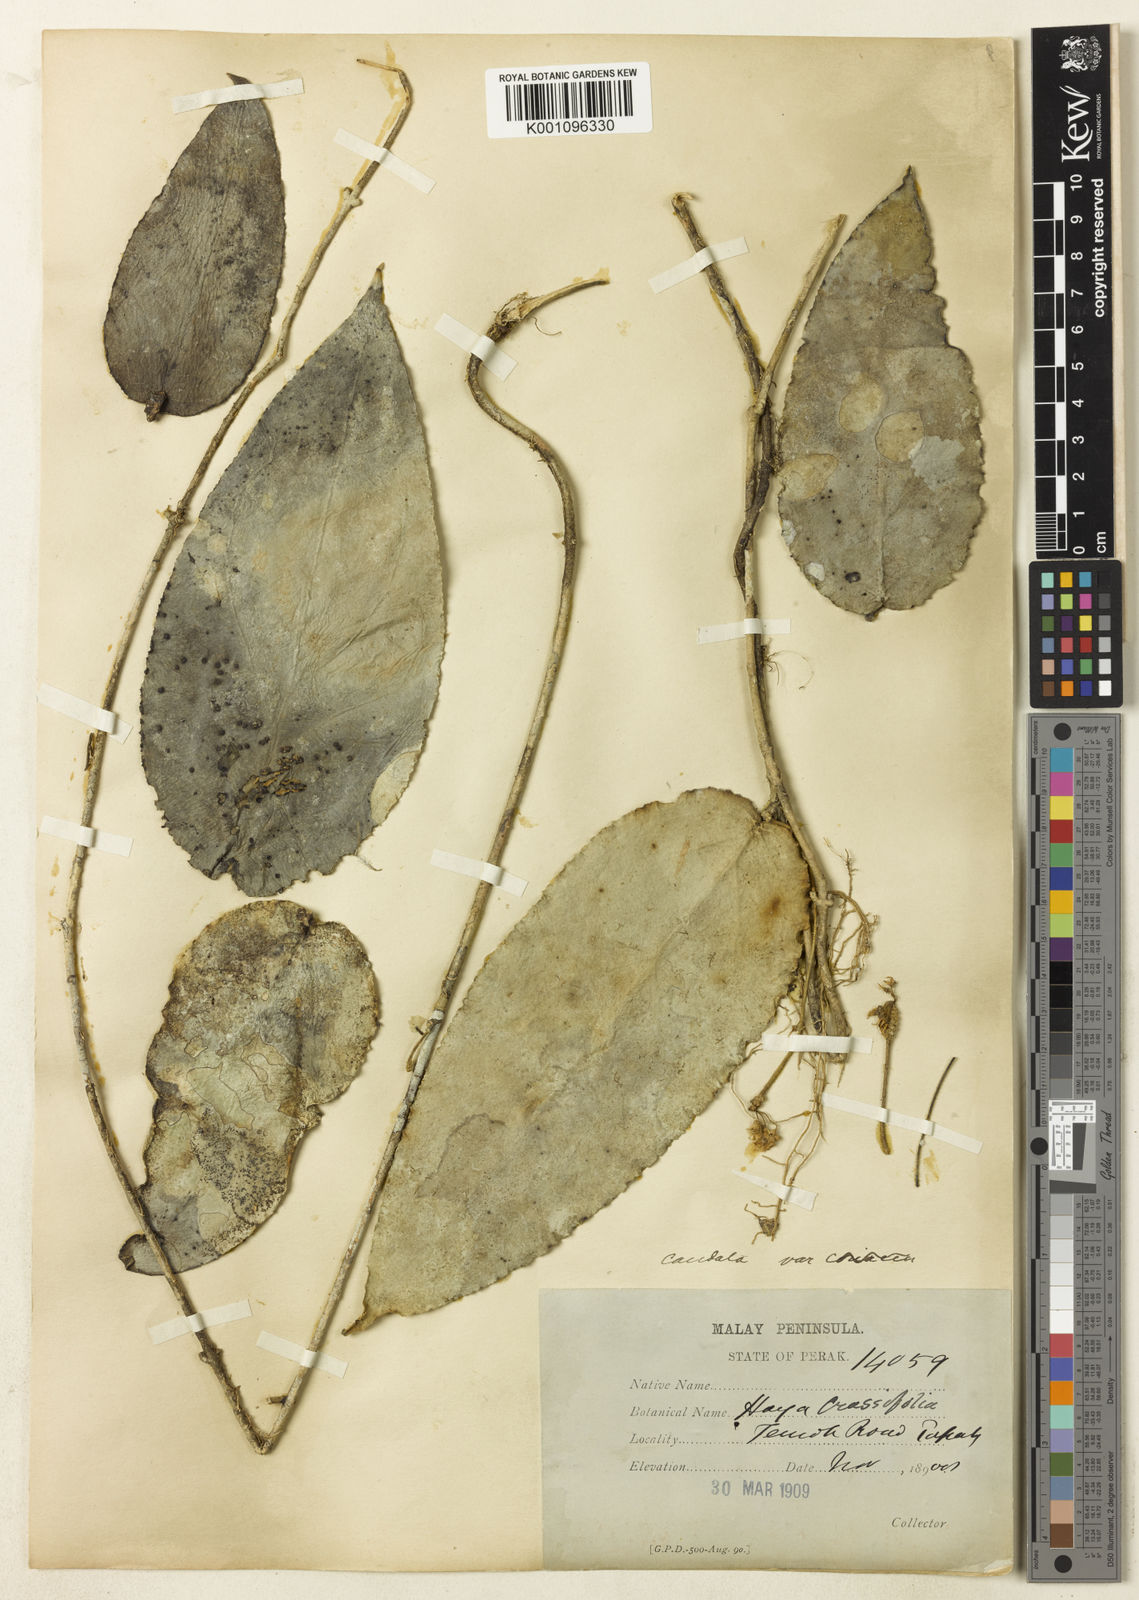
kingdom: Plantae
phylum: Tracheophyta
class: Magnoliopsida
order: Gentianales
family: Apocynaceae
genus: Hoya
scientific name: Hoya caudata
